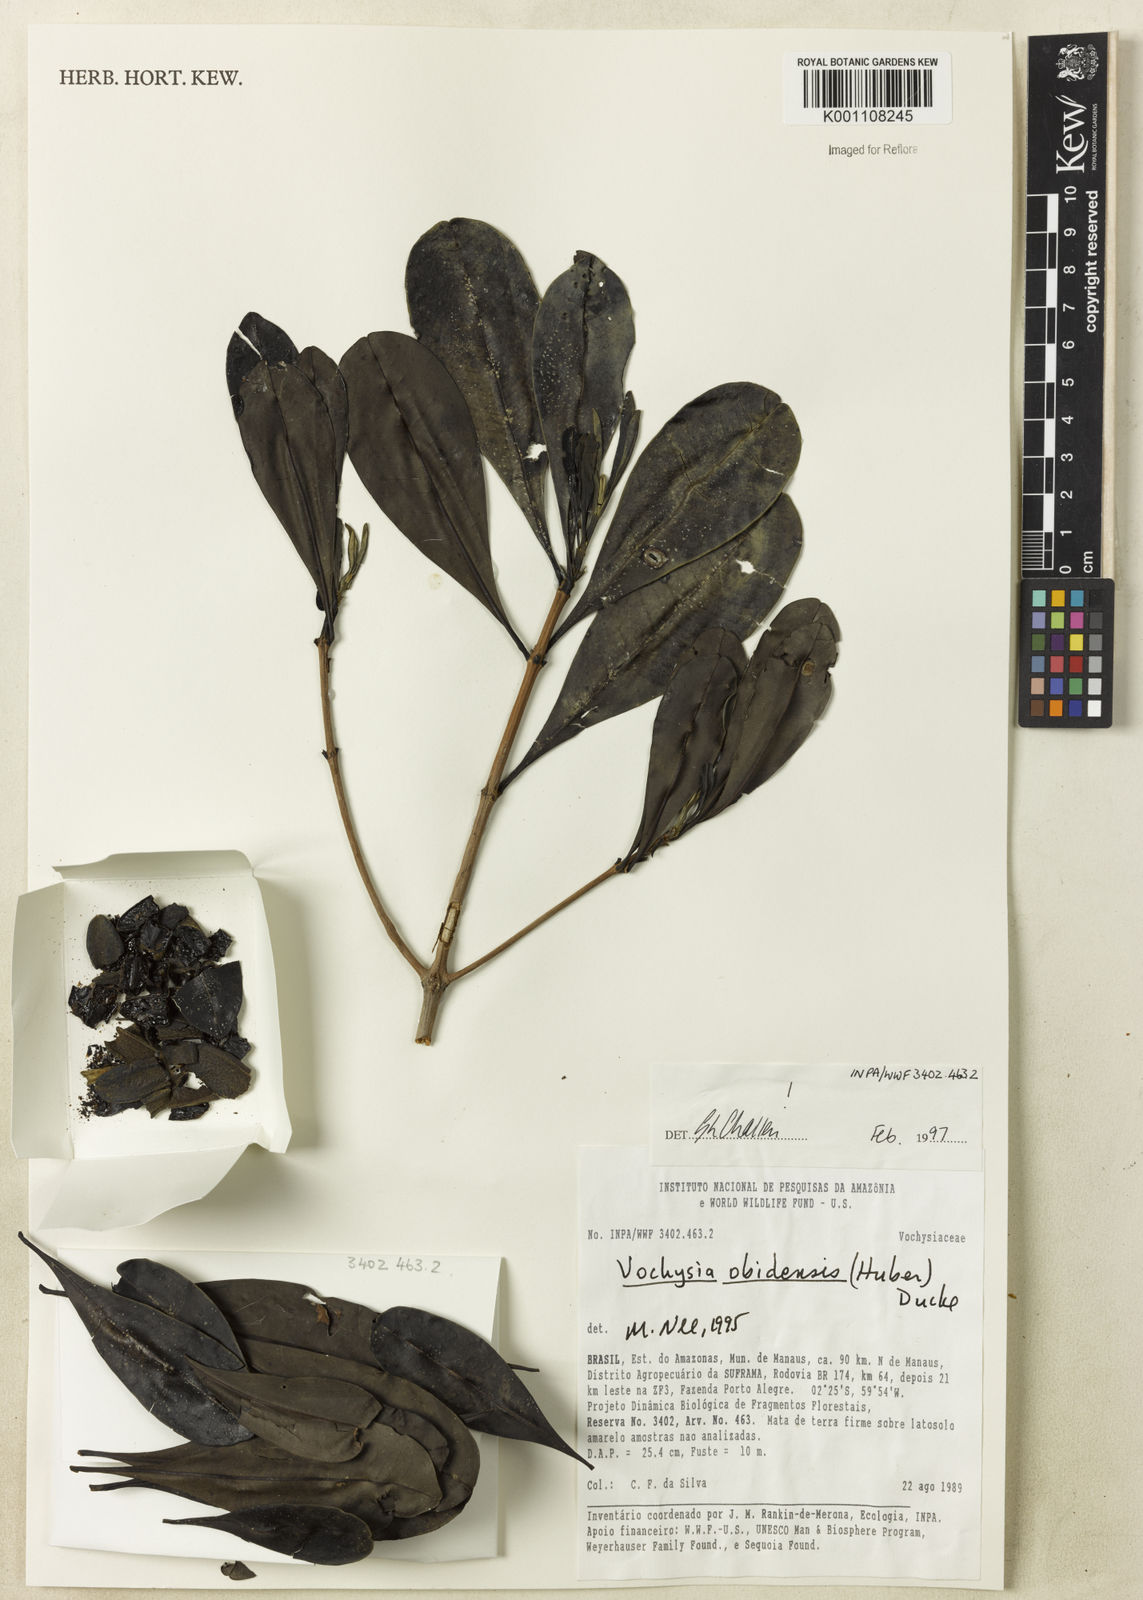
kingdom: Plantae
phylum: Tracheophyta
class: Magnoliopsida
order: Myrtales
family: Vochysiaceae
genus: Vochysia
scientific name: Vochysia obidensis
